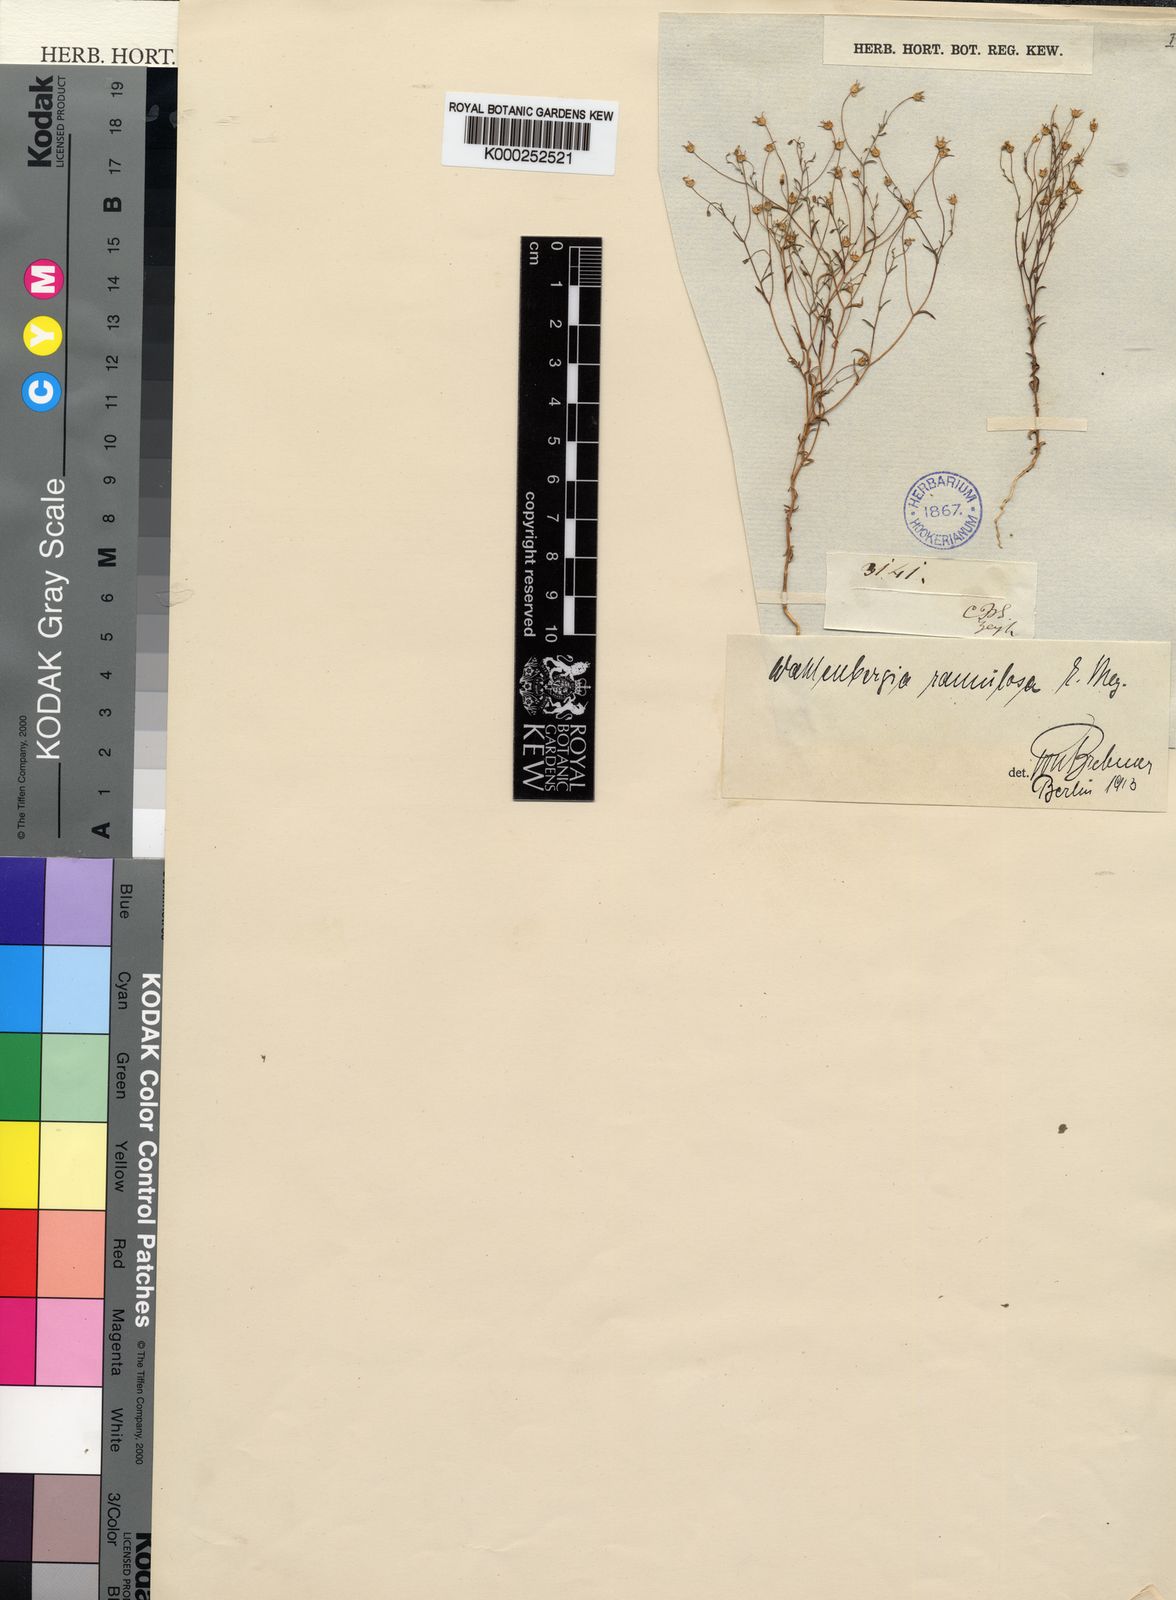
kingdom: Plantae
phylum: Tracheophyta
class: Magnoliopsida
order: Asterales
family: Campanulaceae
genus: Wahlenbergia
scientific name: Wahlenbergia
